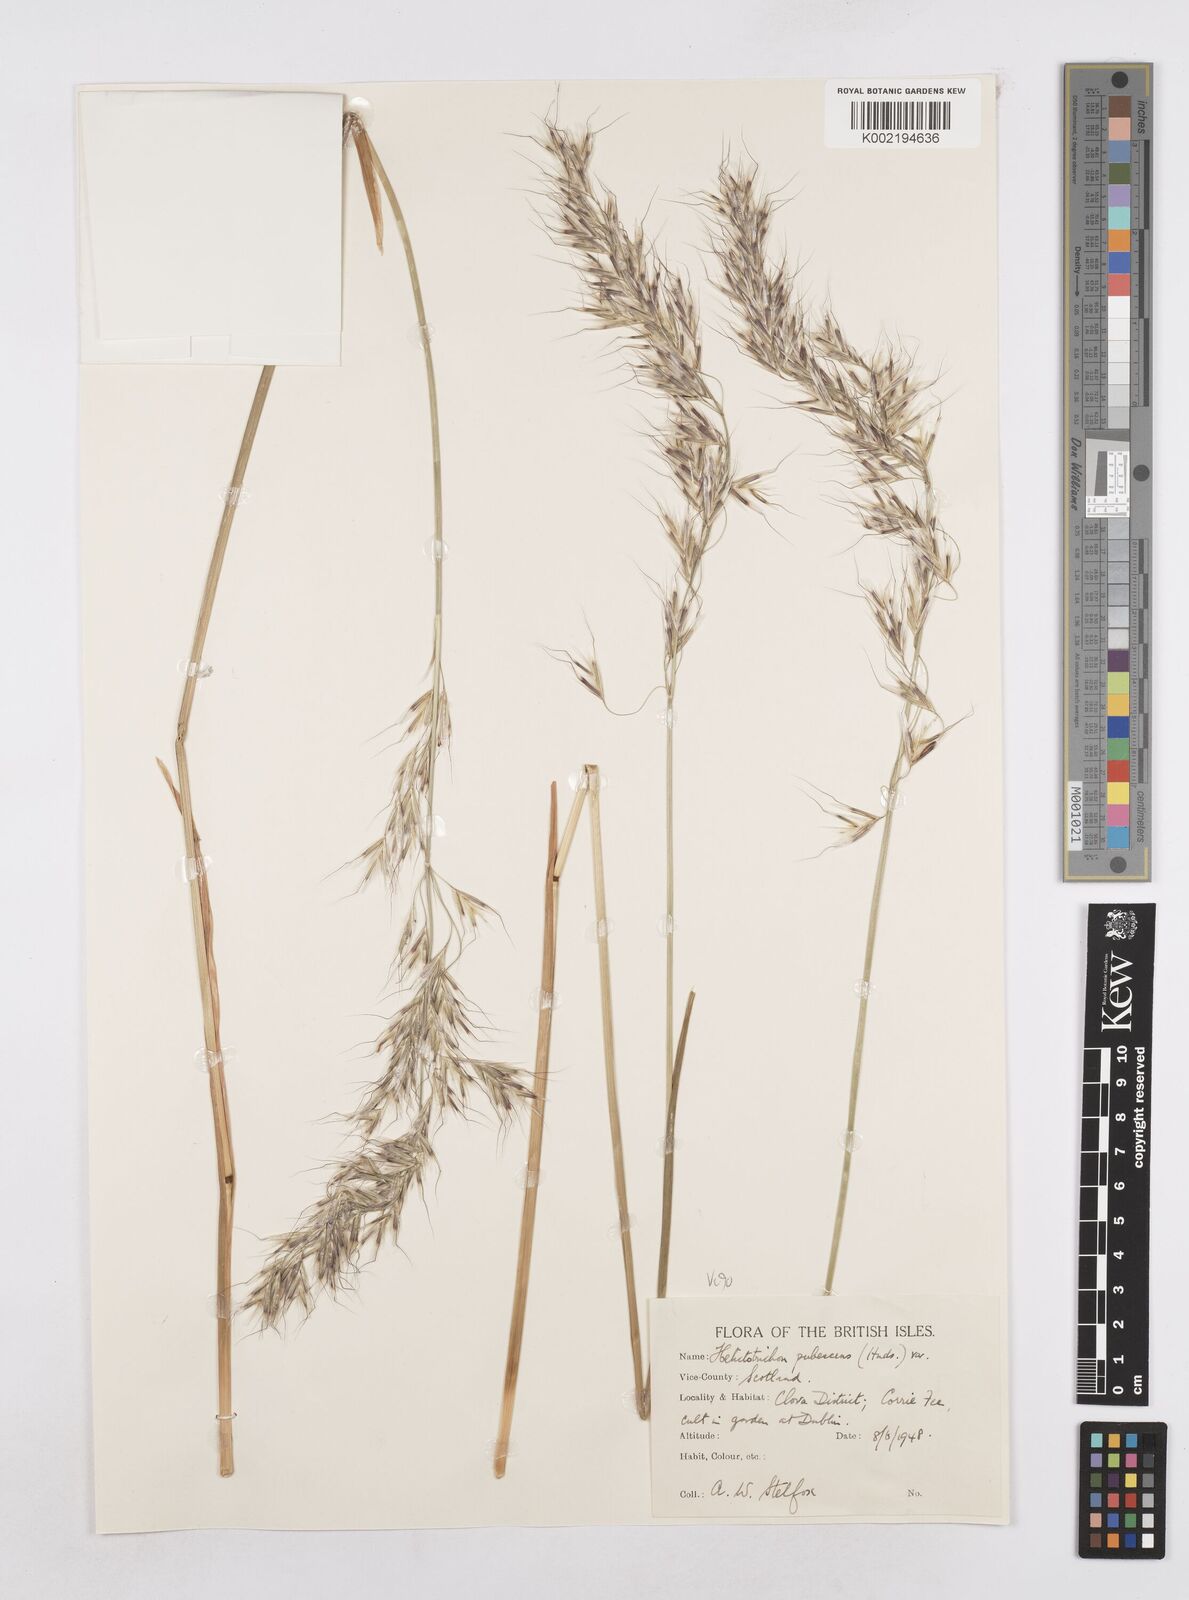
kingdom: Plantae
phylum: Tracheophyta
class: Liliopsida
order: Poales
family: Poaceae
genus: Avenula
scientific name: Avenula pubescens
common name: Downy alpine oatgrass
